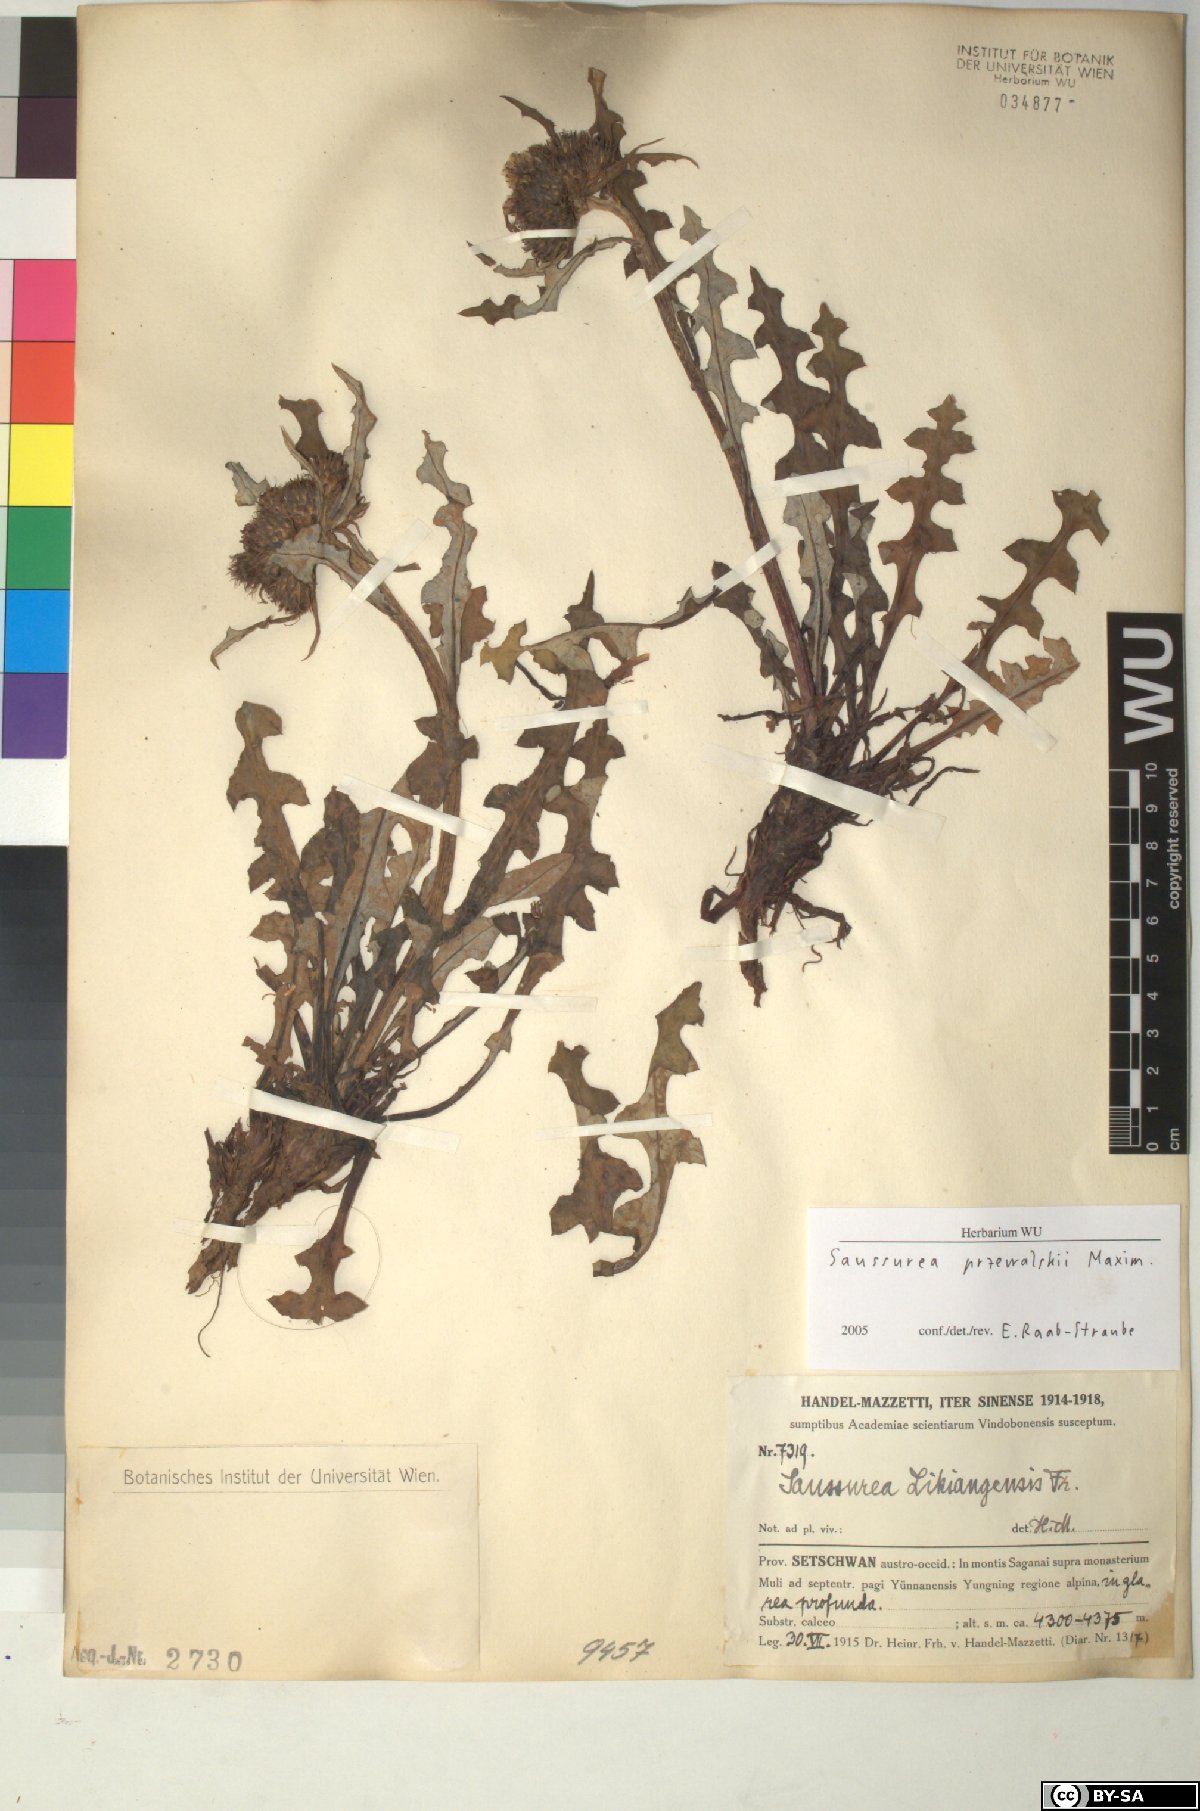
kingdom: Plantae
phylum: Tracheophyta
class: Magnoliopsida
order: Asterales
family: Asteraceae
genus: Saussurea
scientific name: Saussurea przewalskii
